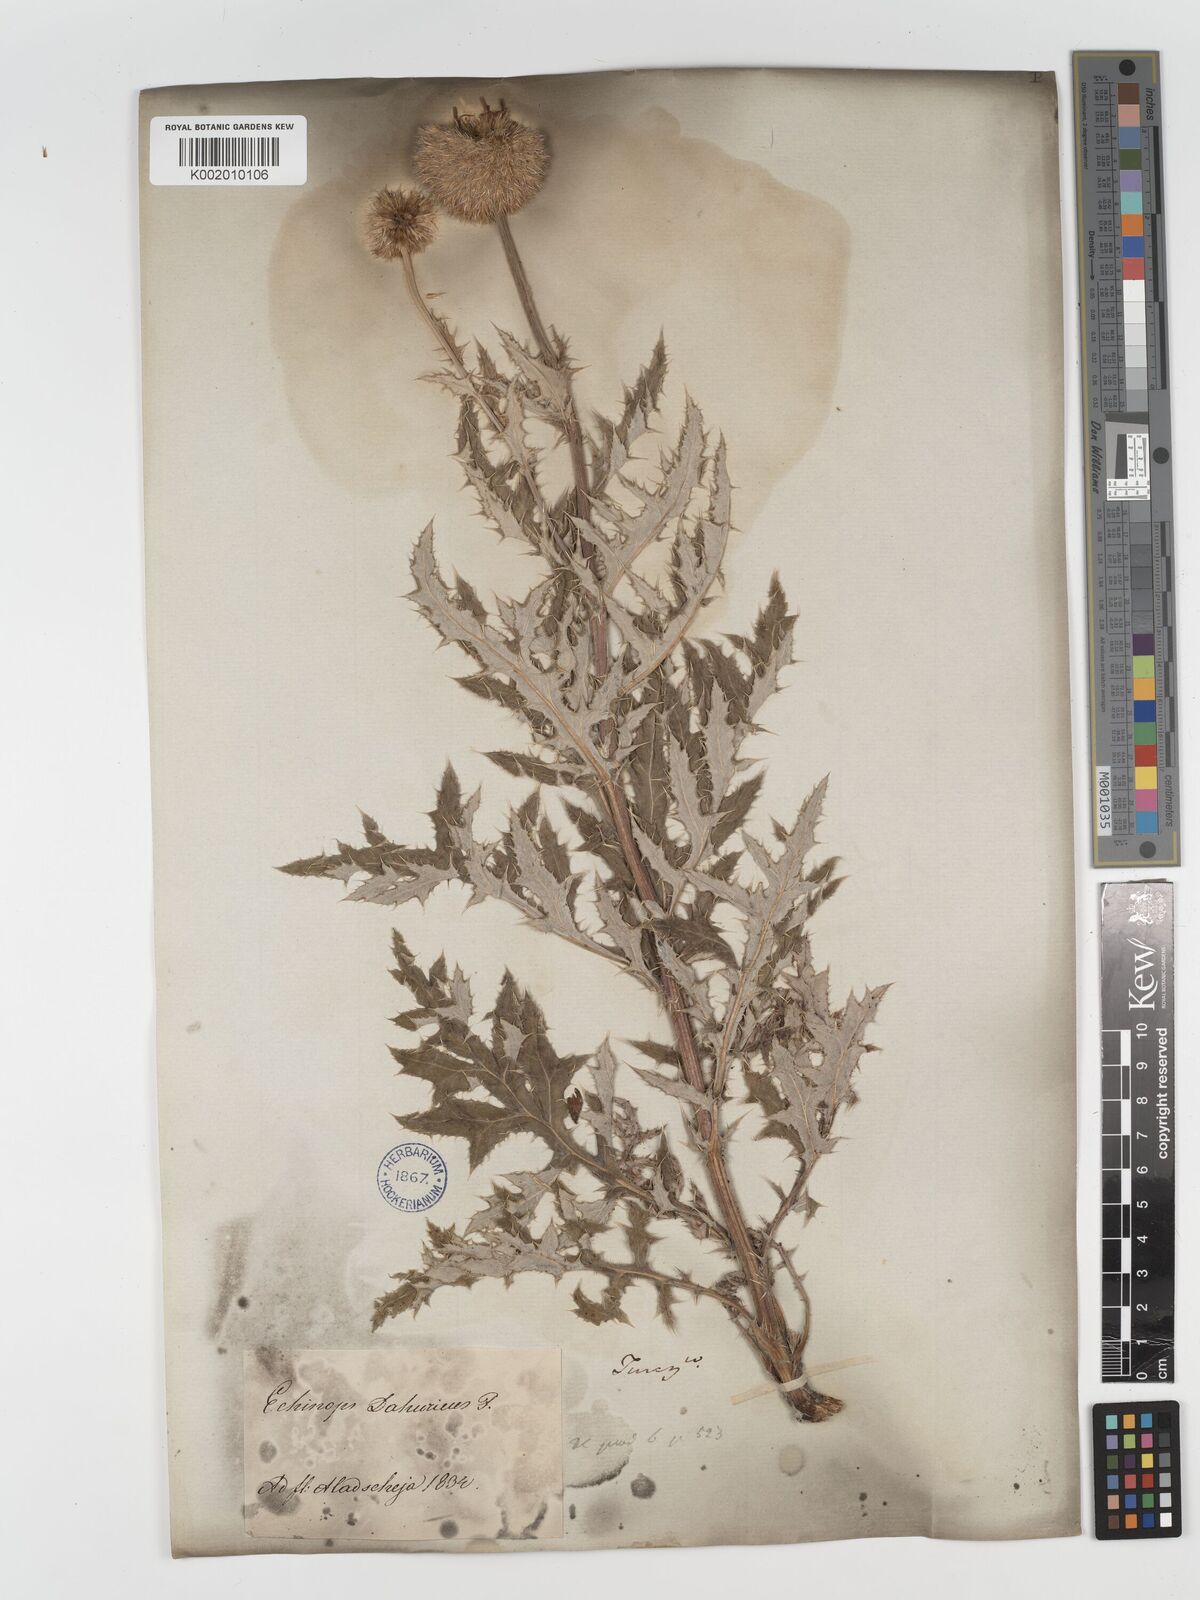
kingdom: Plantae
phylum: Tracheophyta
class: Magnoliopsida
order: Asterales
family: Asteraceae
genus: Echinops
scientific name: Echinops humilis
